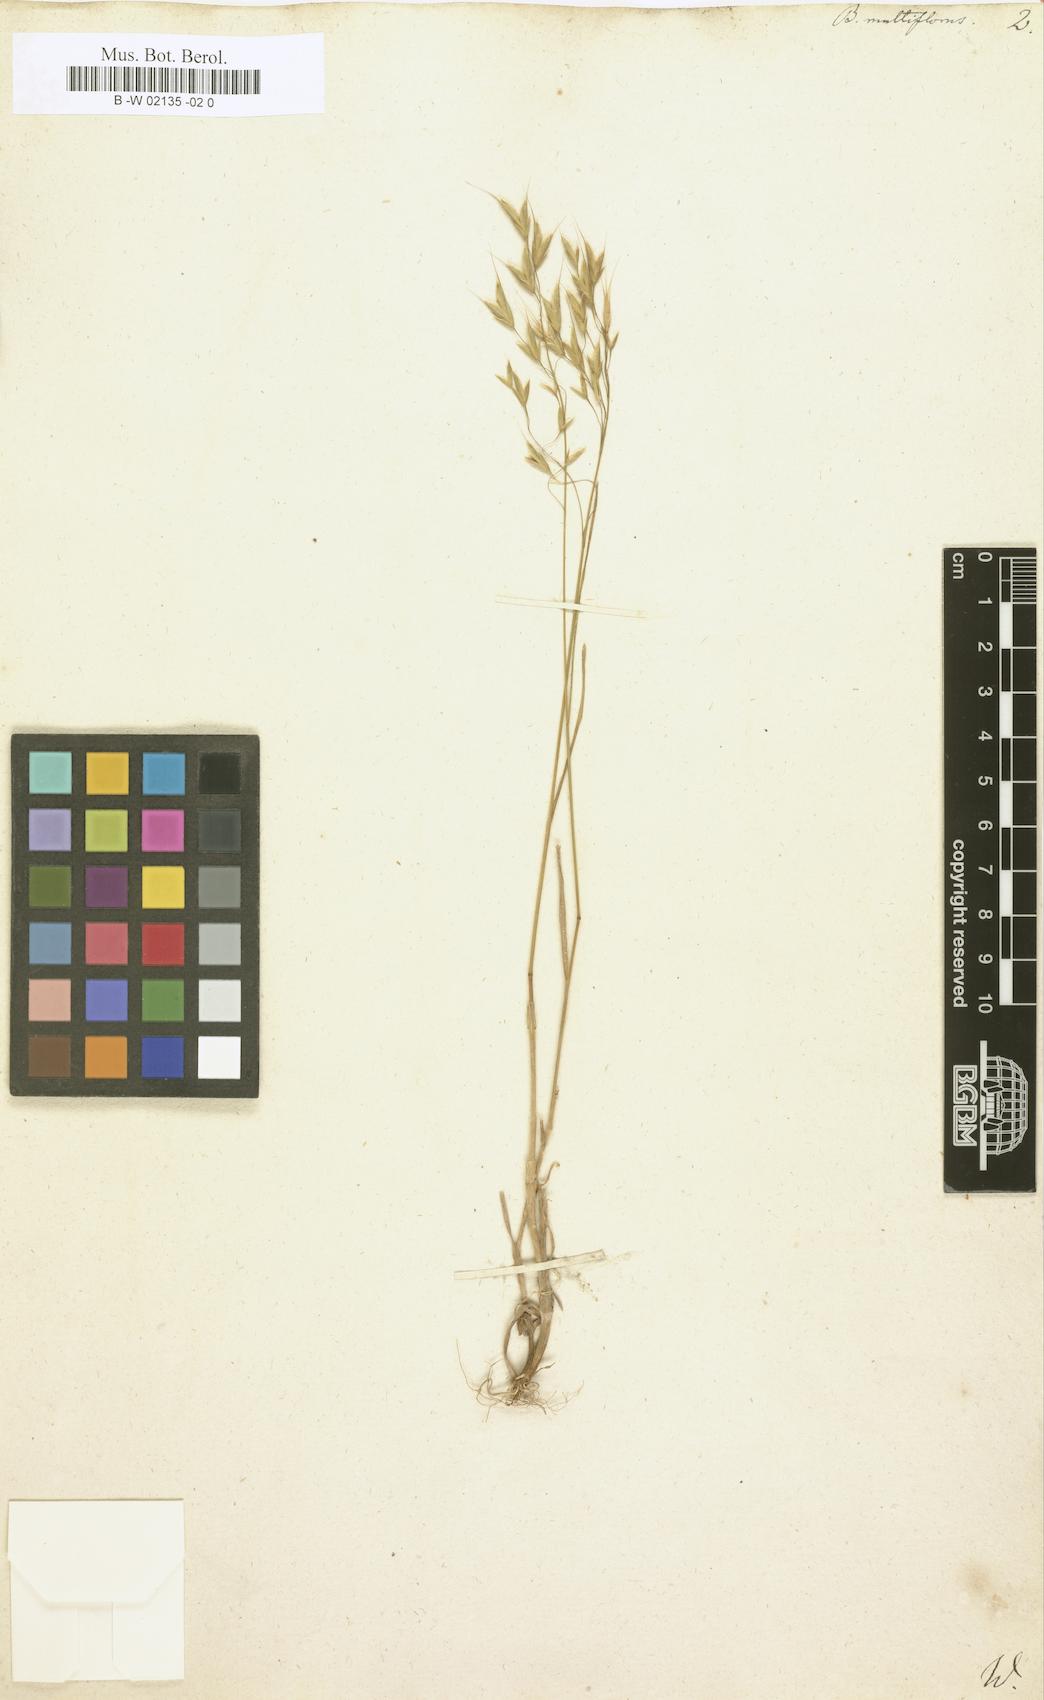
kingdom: Plantae
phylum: Tracheophyta
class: Liliopsida
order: Poales
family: Poaceae
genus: Bromus
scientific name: Bromus arvensis
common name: Field brome
